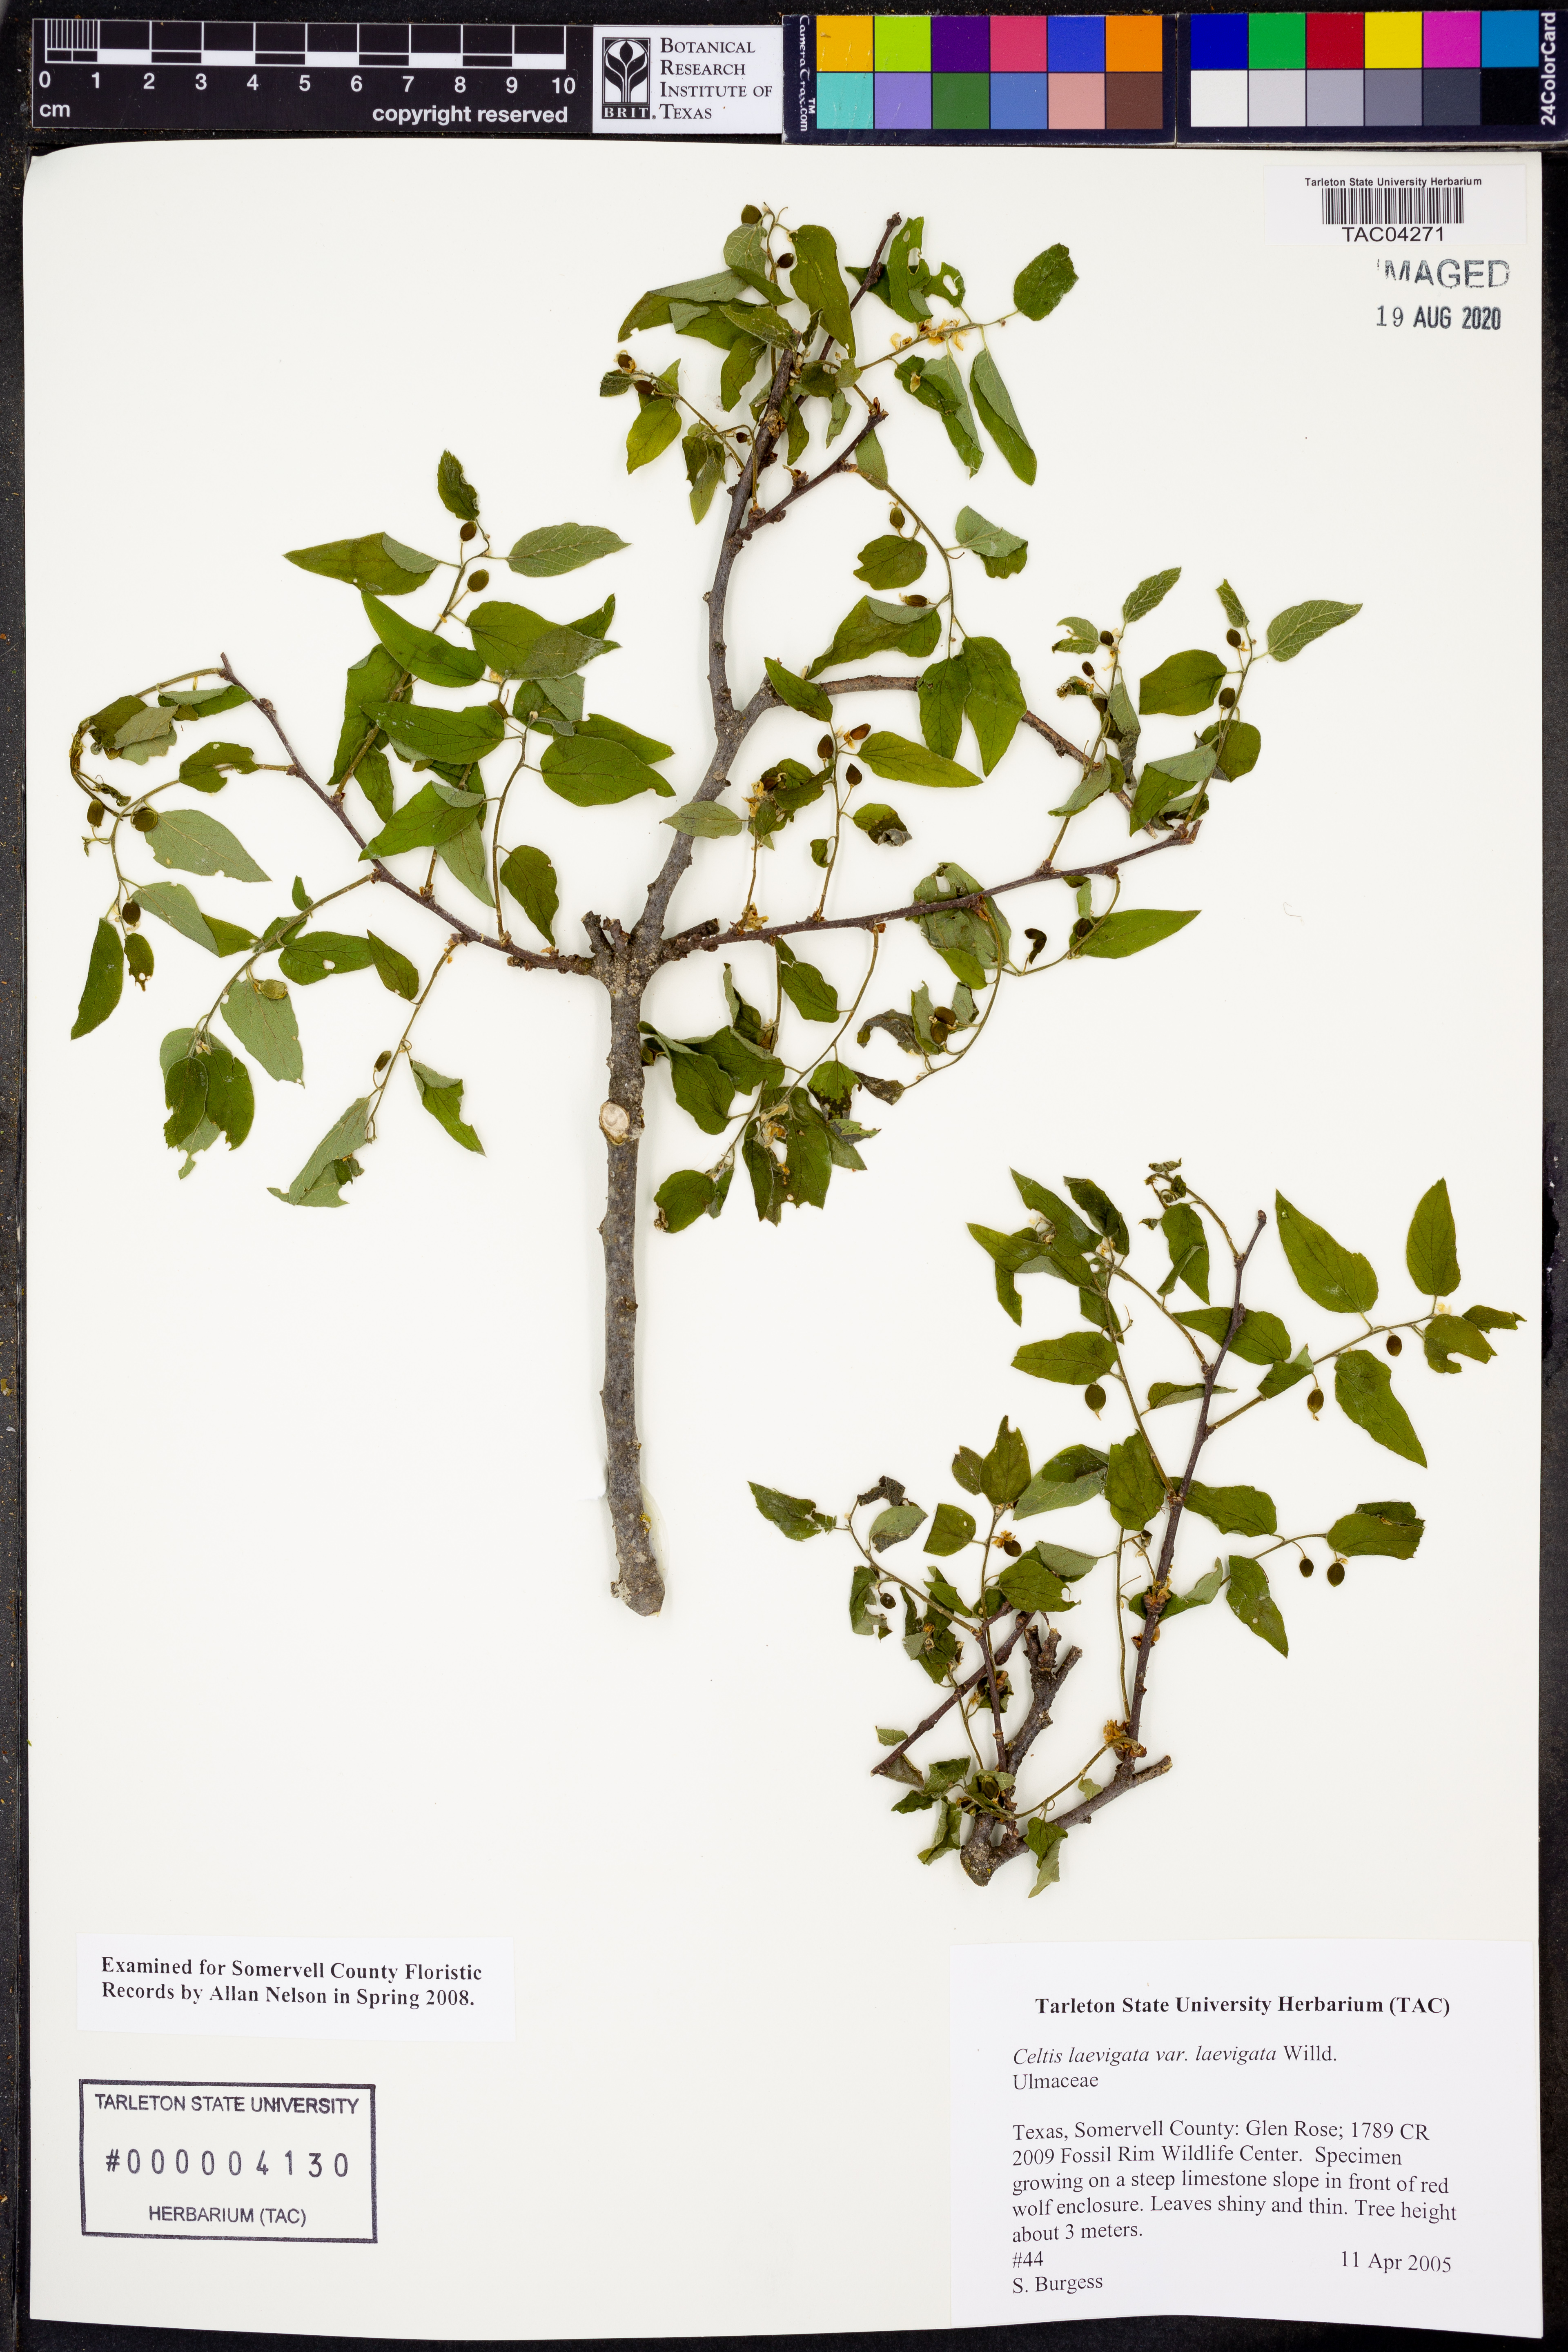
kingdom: Plantae
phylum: Tracheophyta
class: Magnoliopsida
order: Rosales
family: Cannabaceae
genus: Celtis
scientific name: Celtis laevigata
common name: Sugarberry
